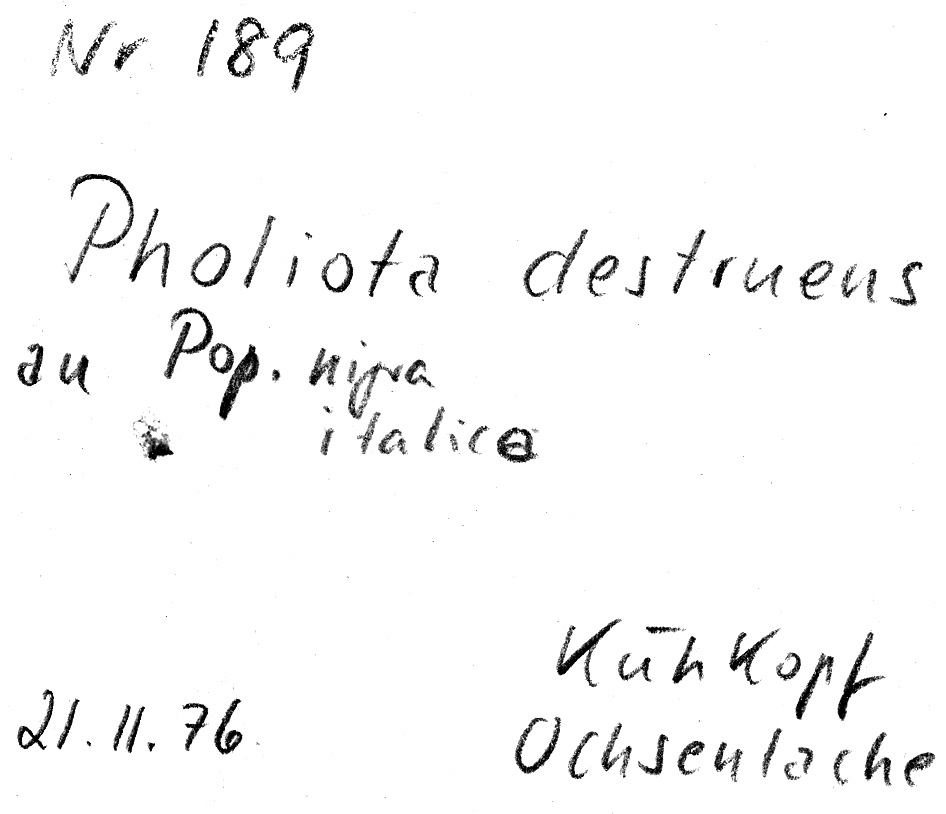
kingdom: Plantae
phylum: Tracheophyta
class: Magnoliopsida
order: Malpighiales
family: Salicaceae
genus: Populus
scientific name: Populus alba
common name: White poplar
